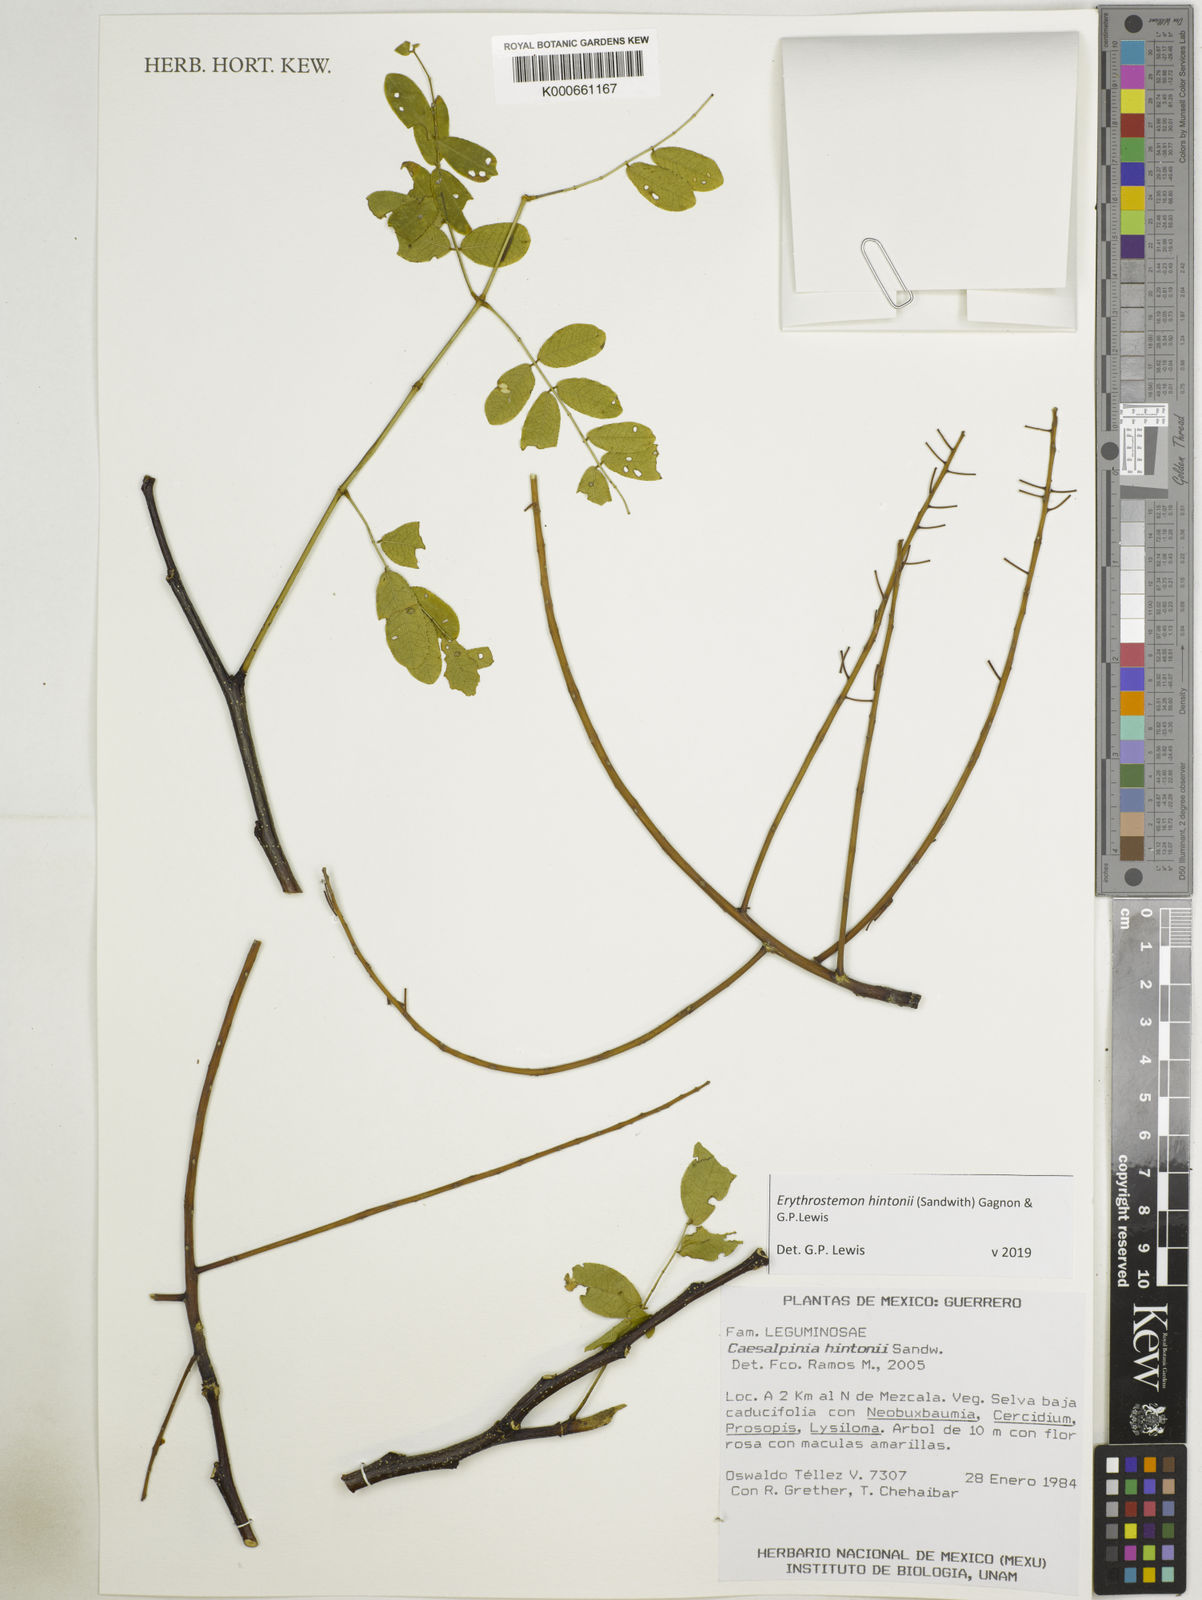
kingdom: Plantae
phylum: Tracheophyta
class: Magnoliopsida
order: Fabales
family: Fabaceae
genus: Erythrostemon
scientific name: Erythrostemon hintonii
